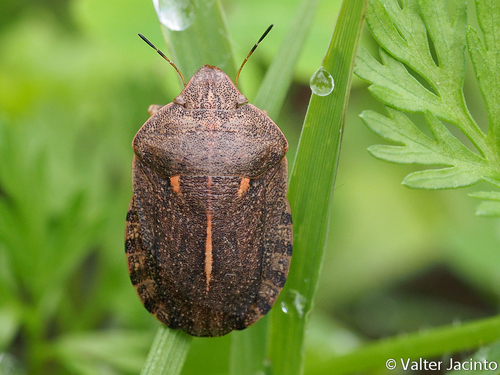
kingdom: Animalia
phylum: Arthropoda
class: Insecta
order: Hemiptera
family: Scutelleridae
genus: Eurygaster
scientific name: Eurygaster austriaca
